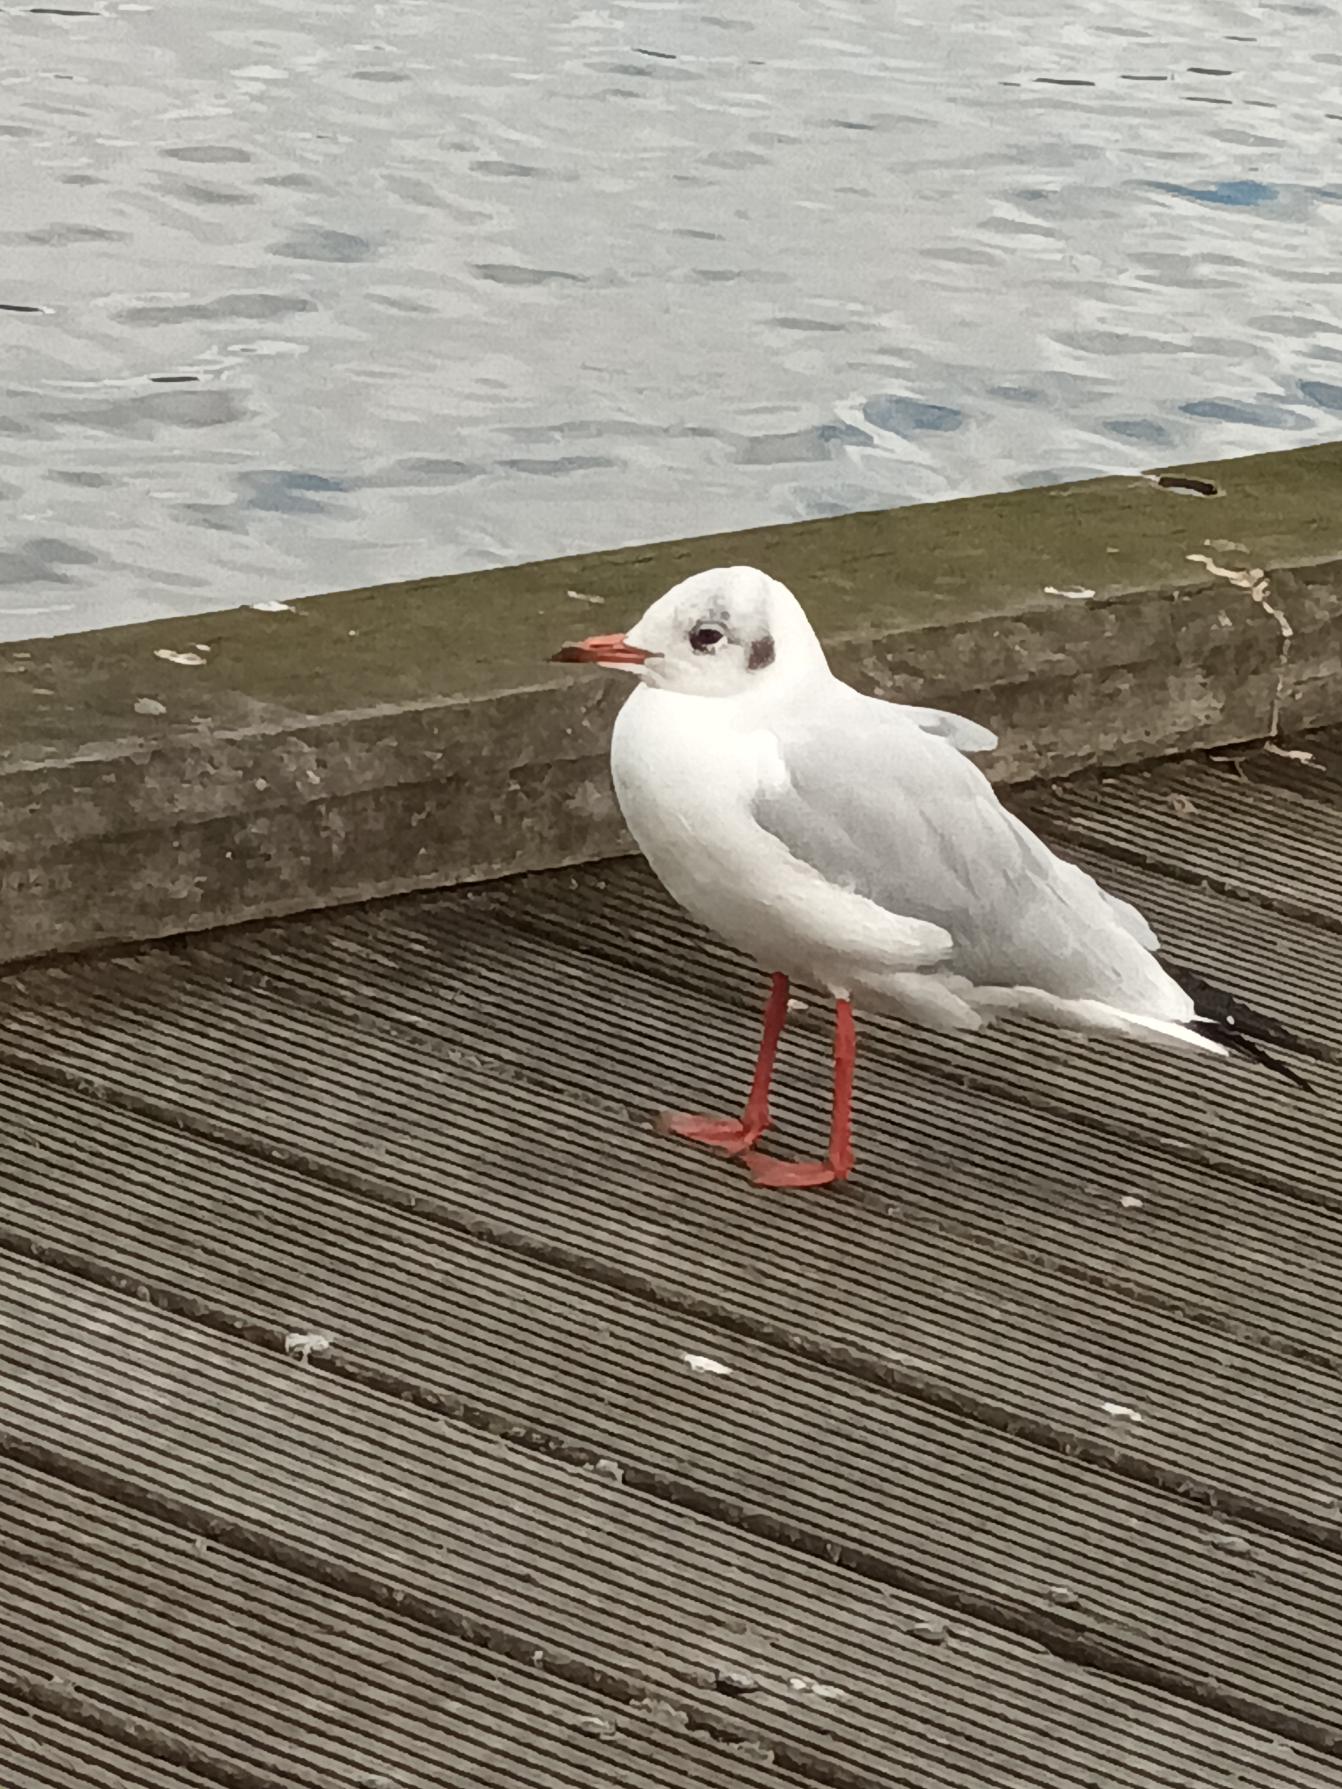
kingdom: Animalia
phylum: Chordata
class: Aves
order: Charadriiformes
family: Laridae
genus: Chroicocephalus
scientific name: Chroicocephalus ridibundus
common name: Hættemåge
